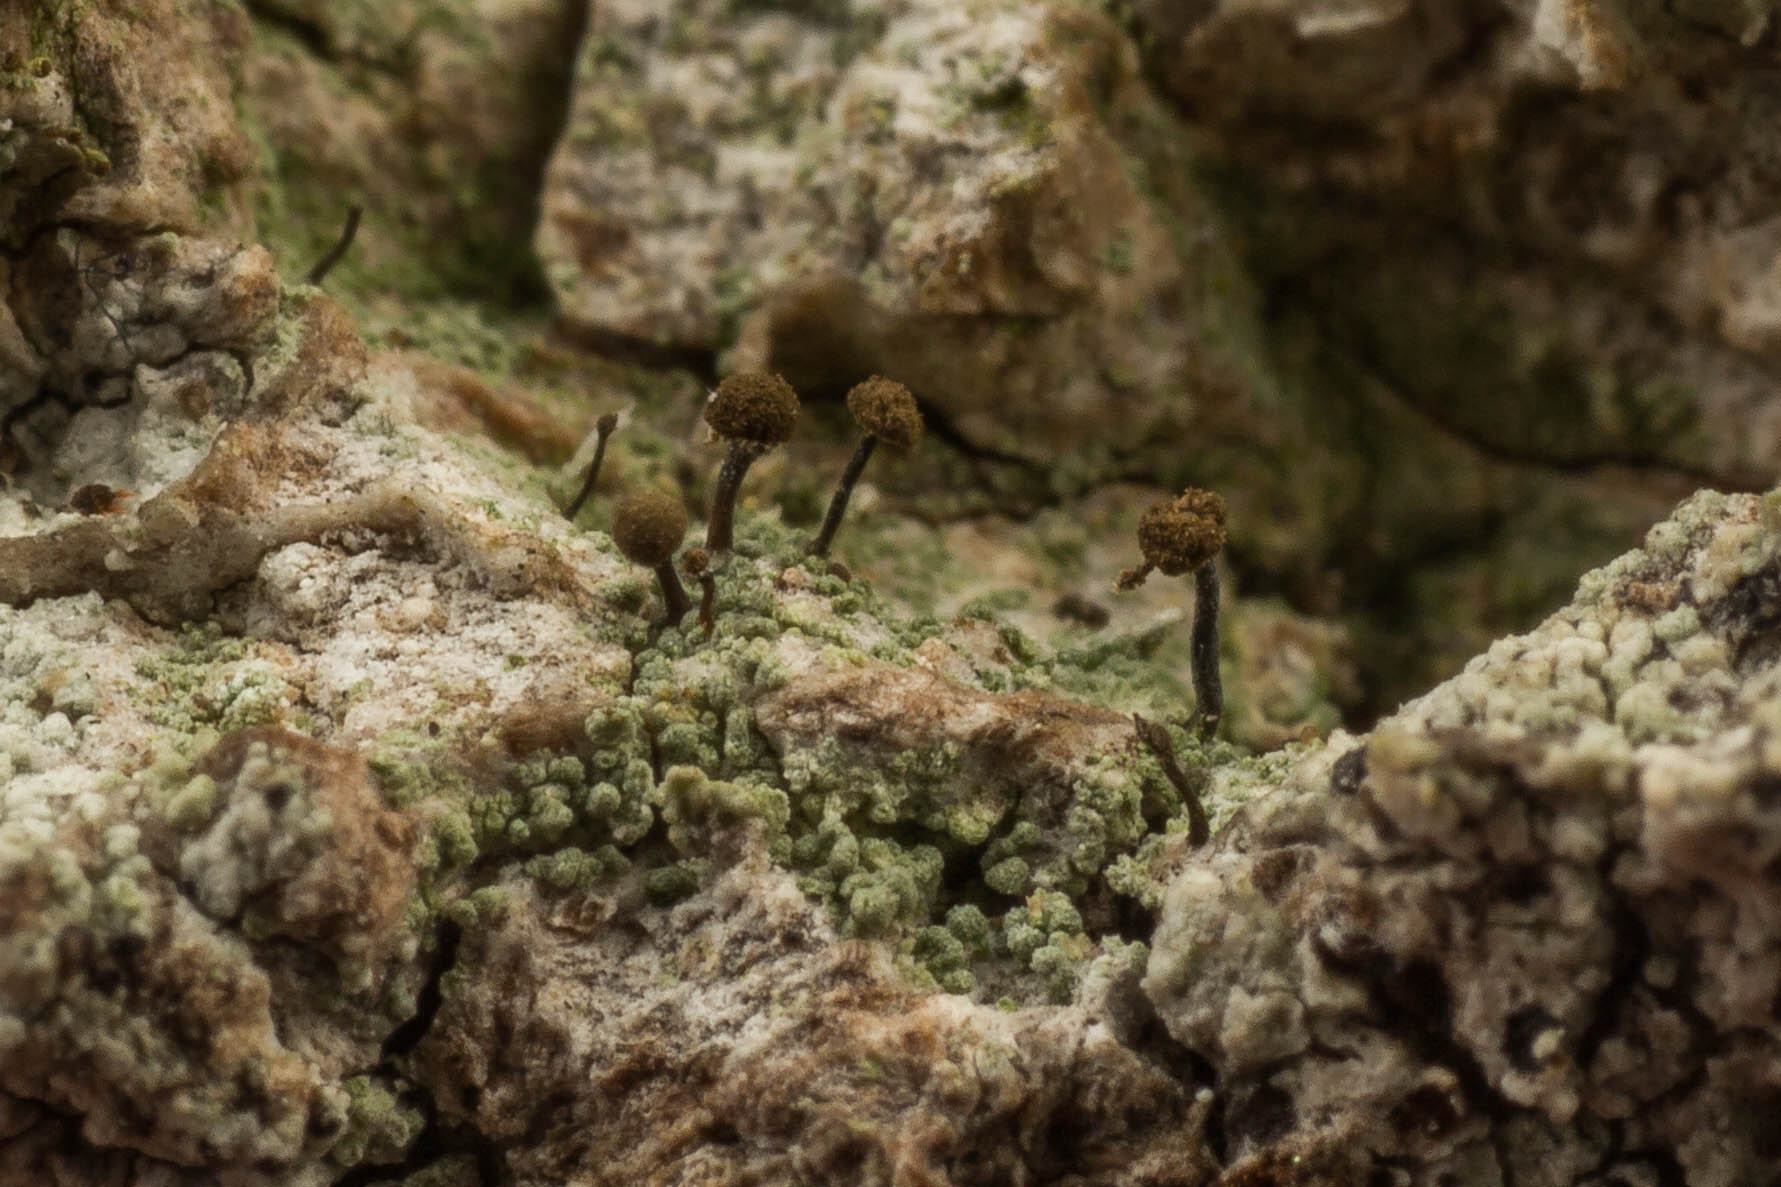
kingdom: Fungi
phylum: Ascomycota
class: Coniocybomycetes
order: Coniocybales
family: Coniocybaceae
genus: Chaenotheca
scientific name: Chaenotheca trichialis
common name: grå knappenålslav
